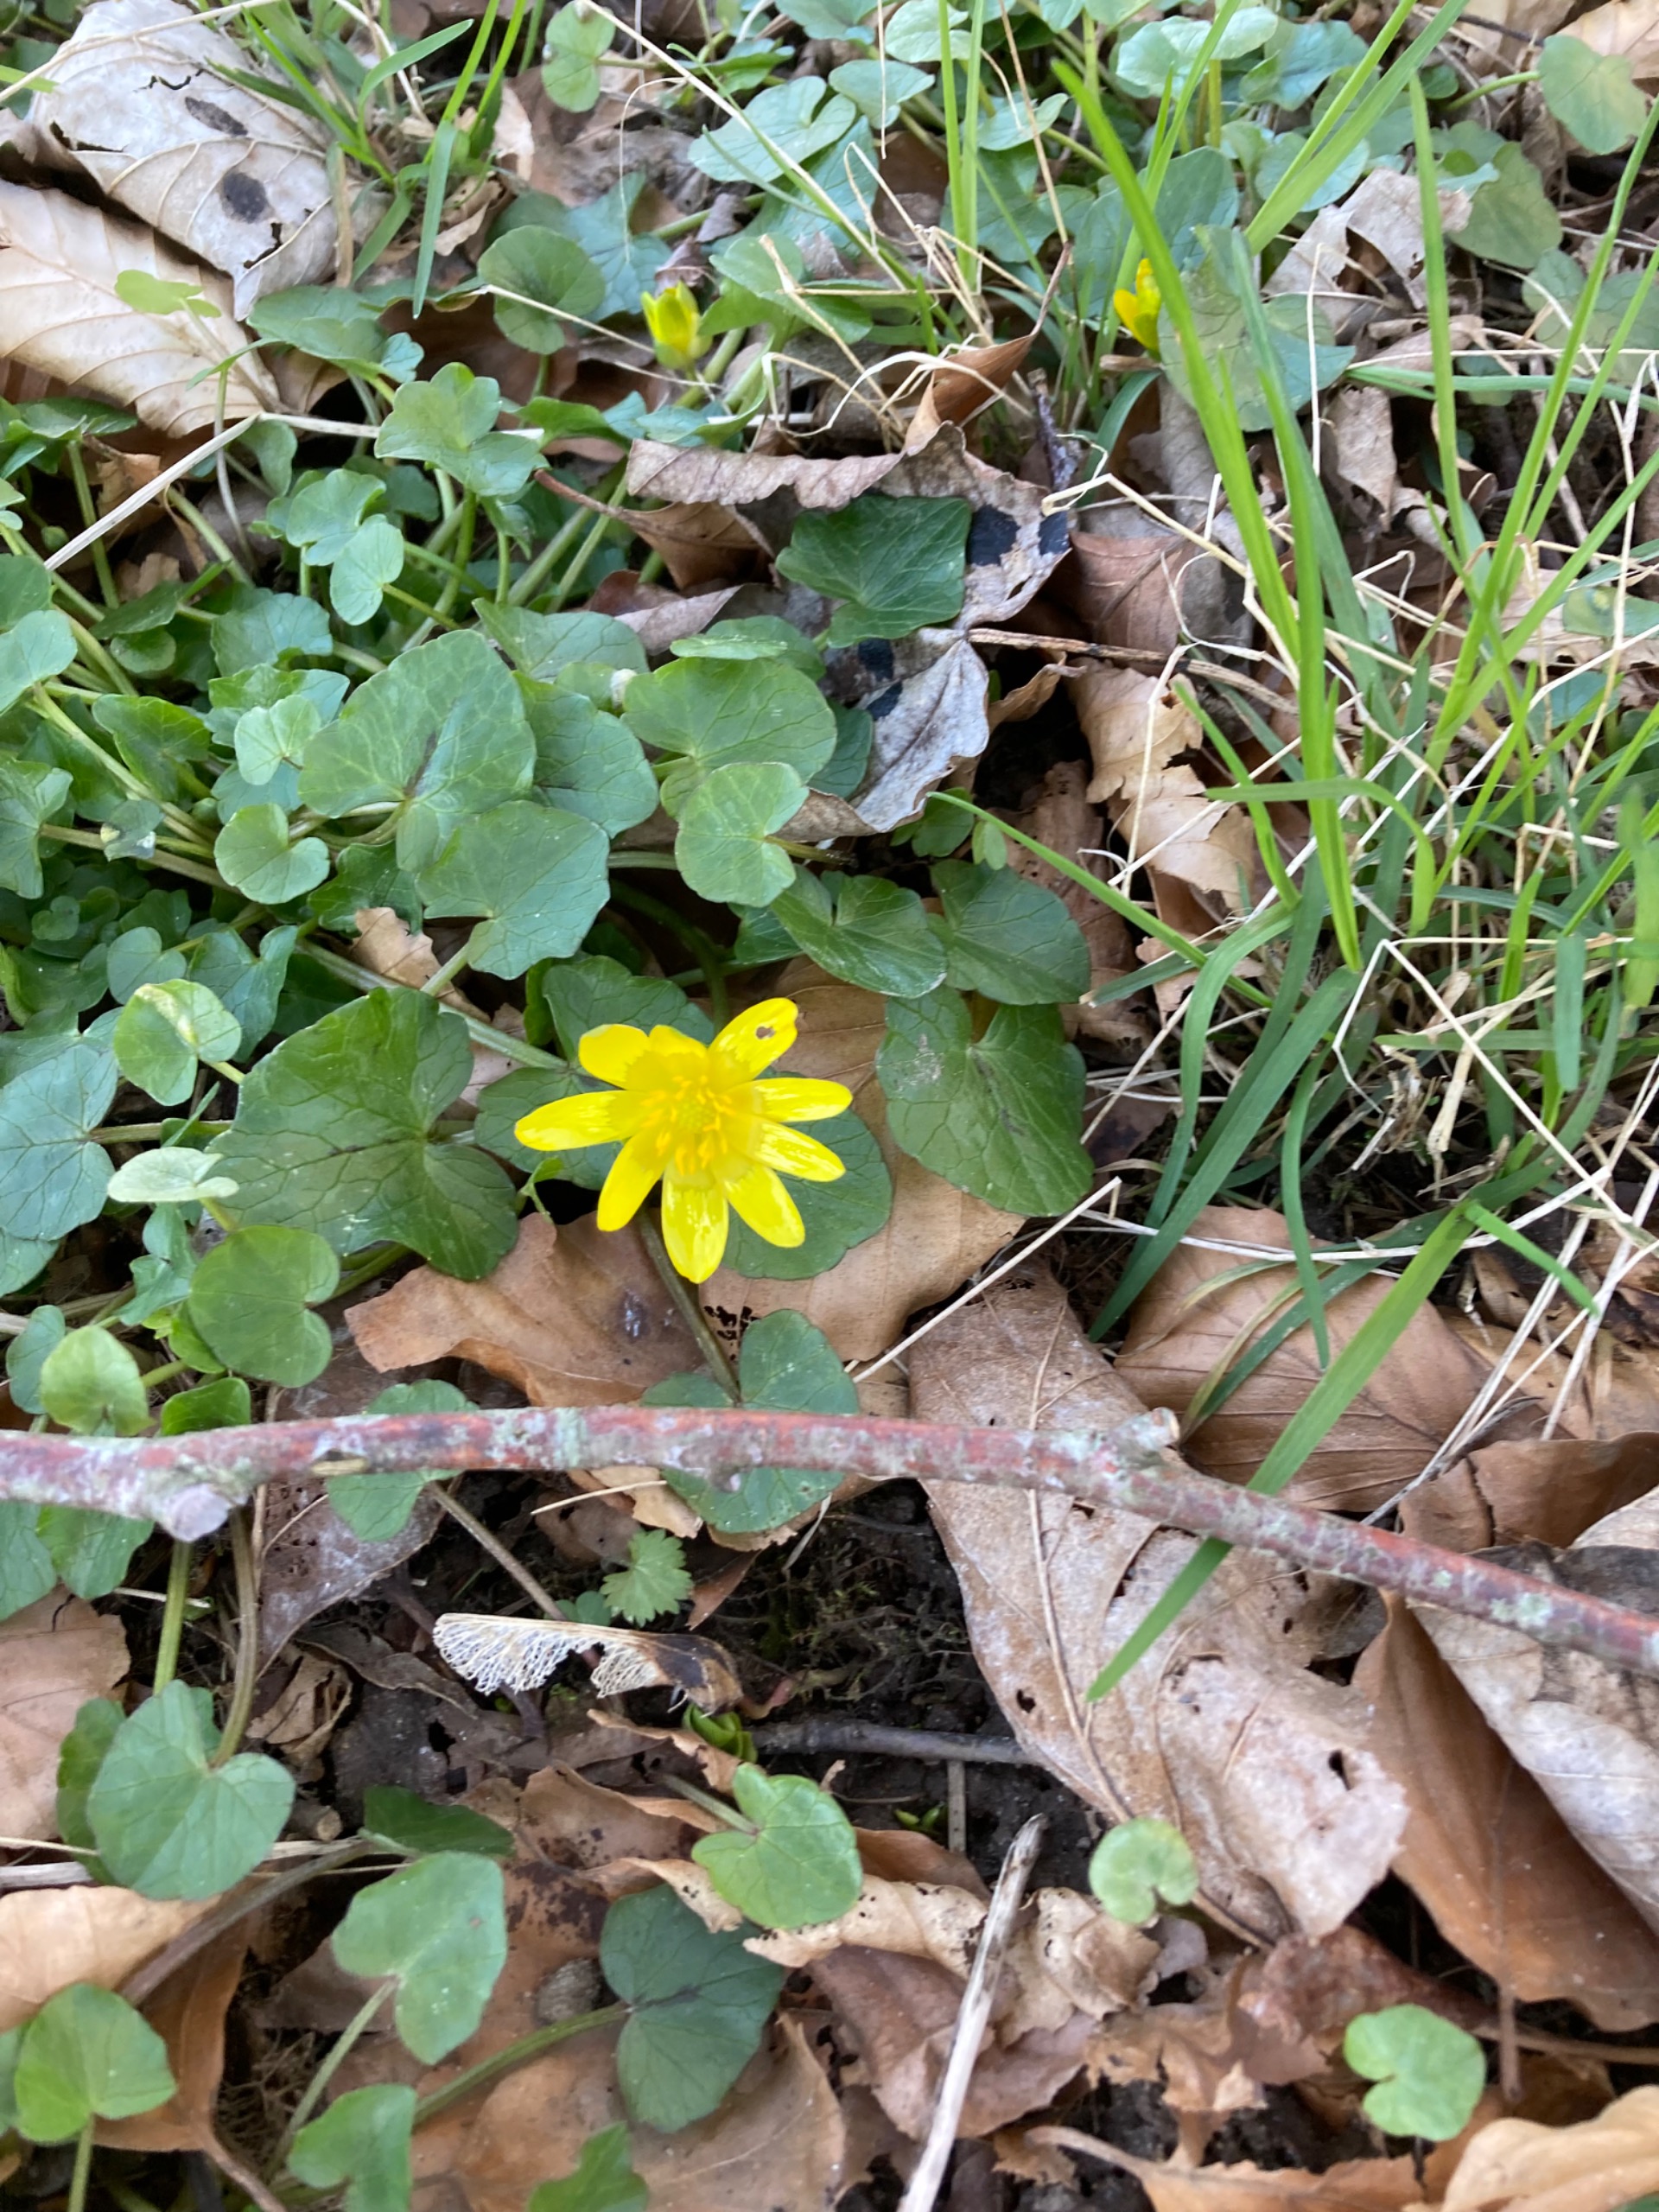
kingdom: Plantae
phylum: Tracheophyta
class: Magnoliopsida
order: Ranunculales
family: Ranunculaceae
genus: Ficaria
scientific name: Ficaria verna
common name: Vorterod
